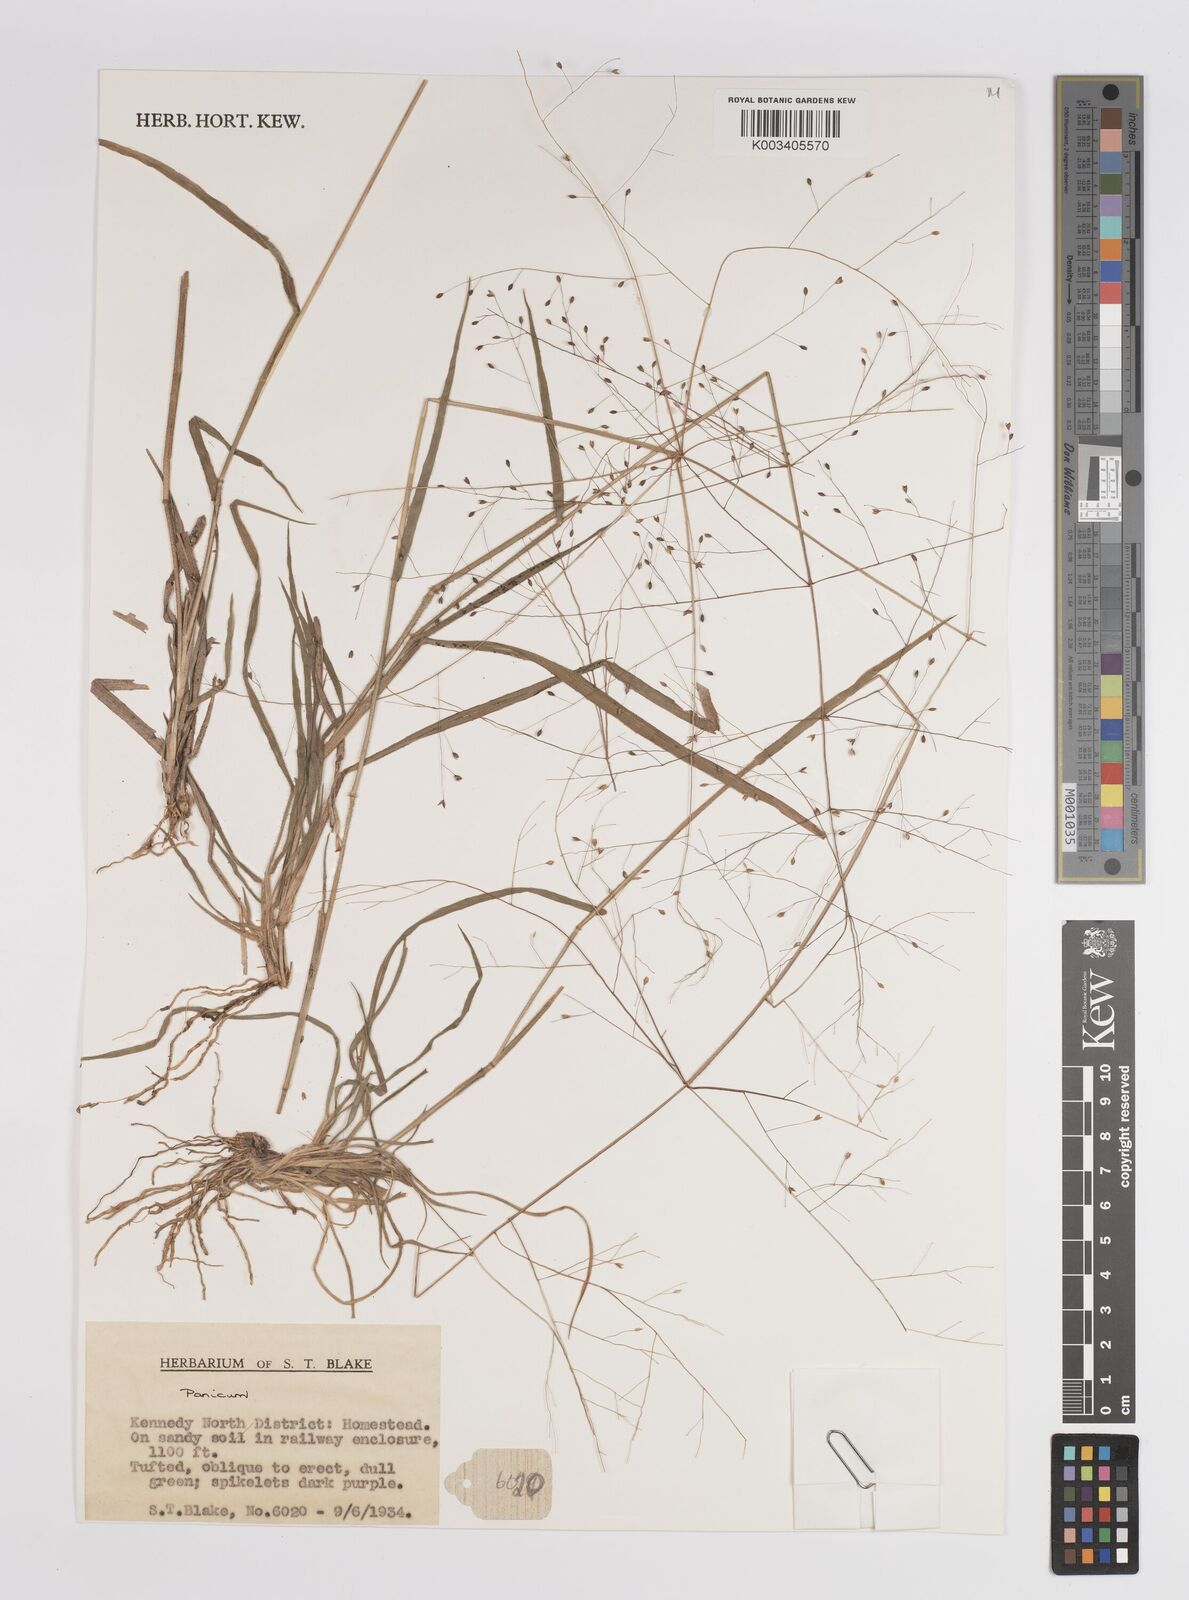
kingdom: Plantae
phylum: Tracheophyta
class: Liliopsida
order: Poales
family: Poaceae
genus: Panicum
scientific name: Panicum
